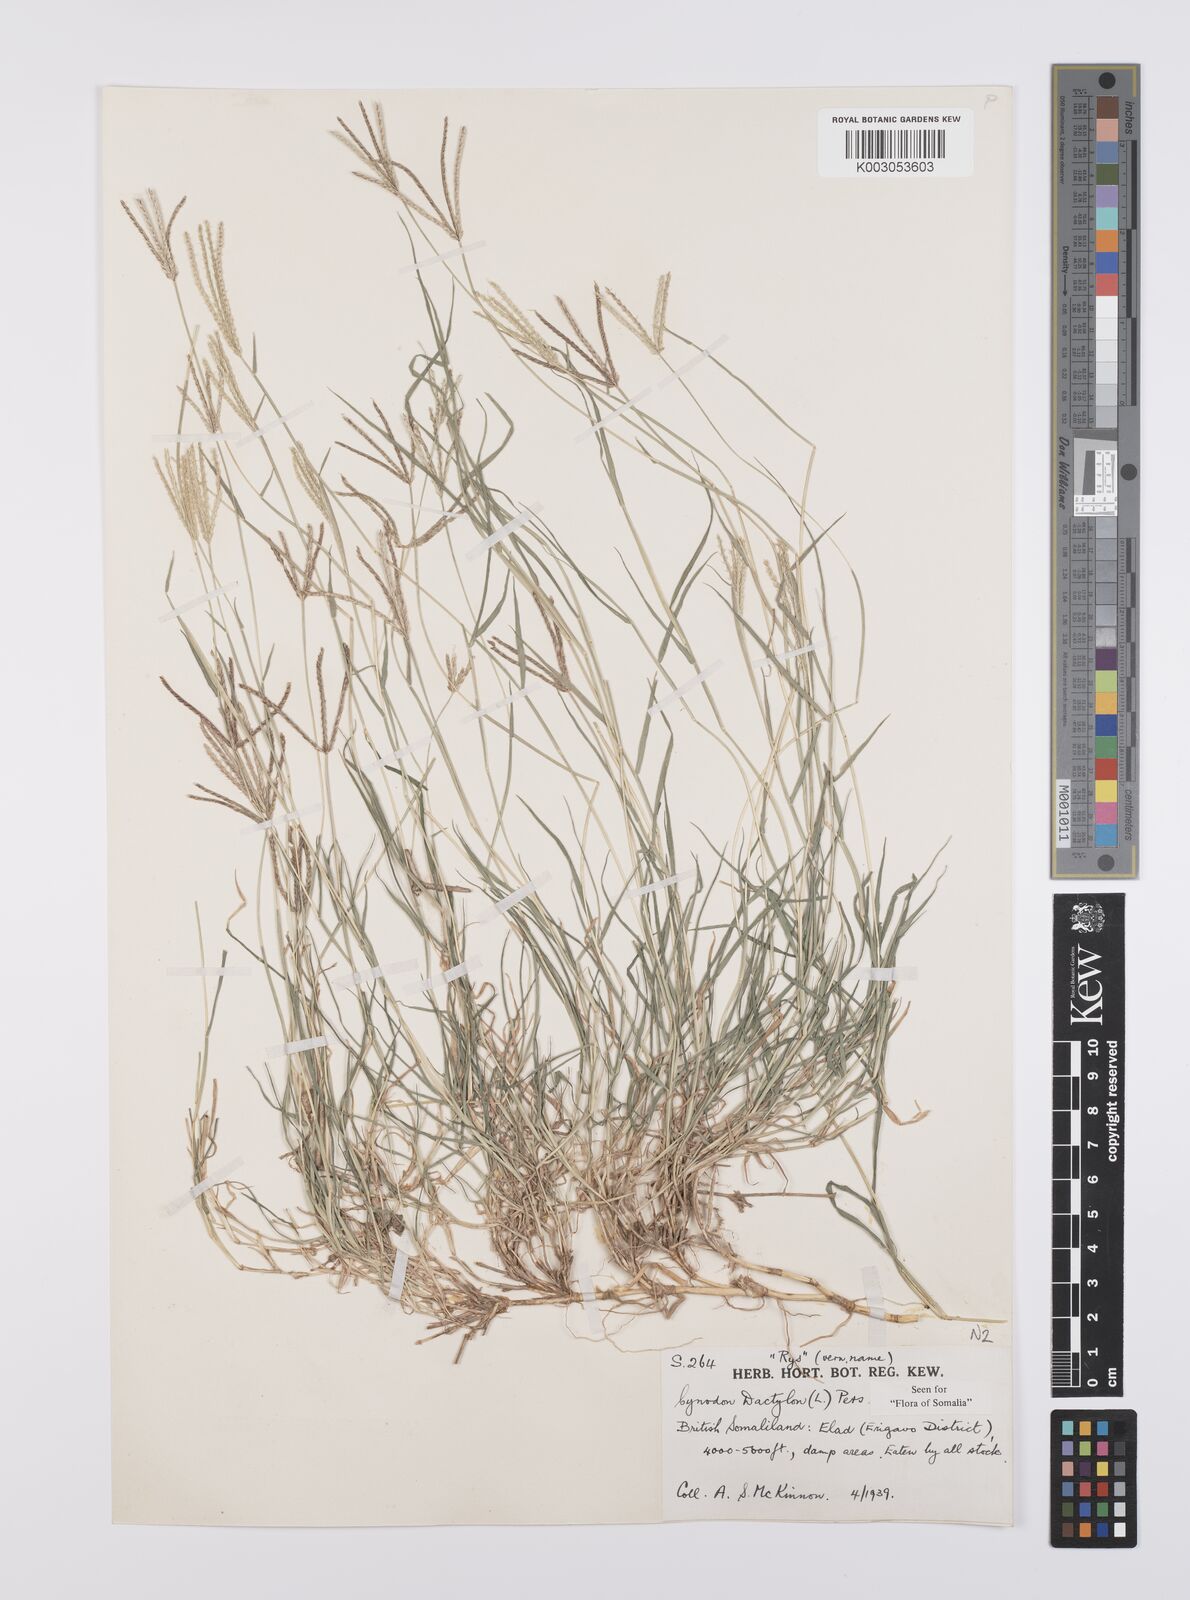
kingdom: Plantae
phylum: Tracheophyta
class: Liliopsida
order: Poales
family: Poaceae
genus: Cynodon
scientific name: Cynodon dactylon
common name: Bermuda grass
